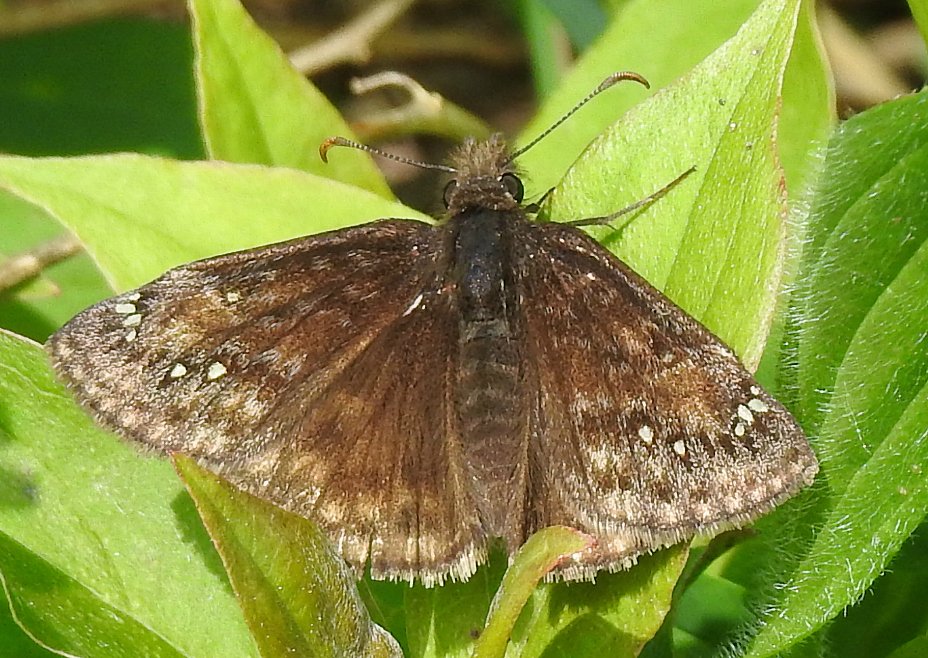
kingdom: Animalia
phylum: Arthropoda
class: Insecta
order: Lepidoptera
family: Hesperiidae
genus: Gesta
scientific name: Gesta
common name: Juvenal's Duskywing
